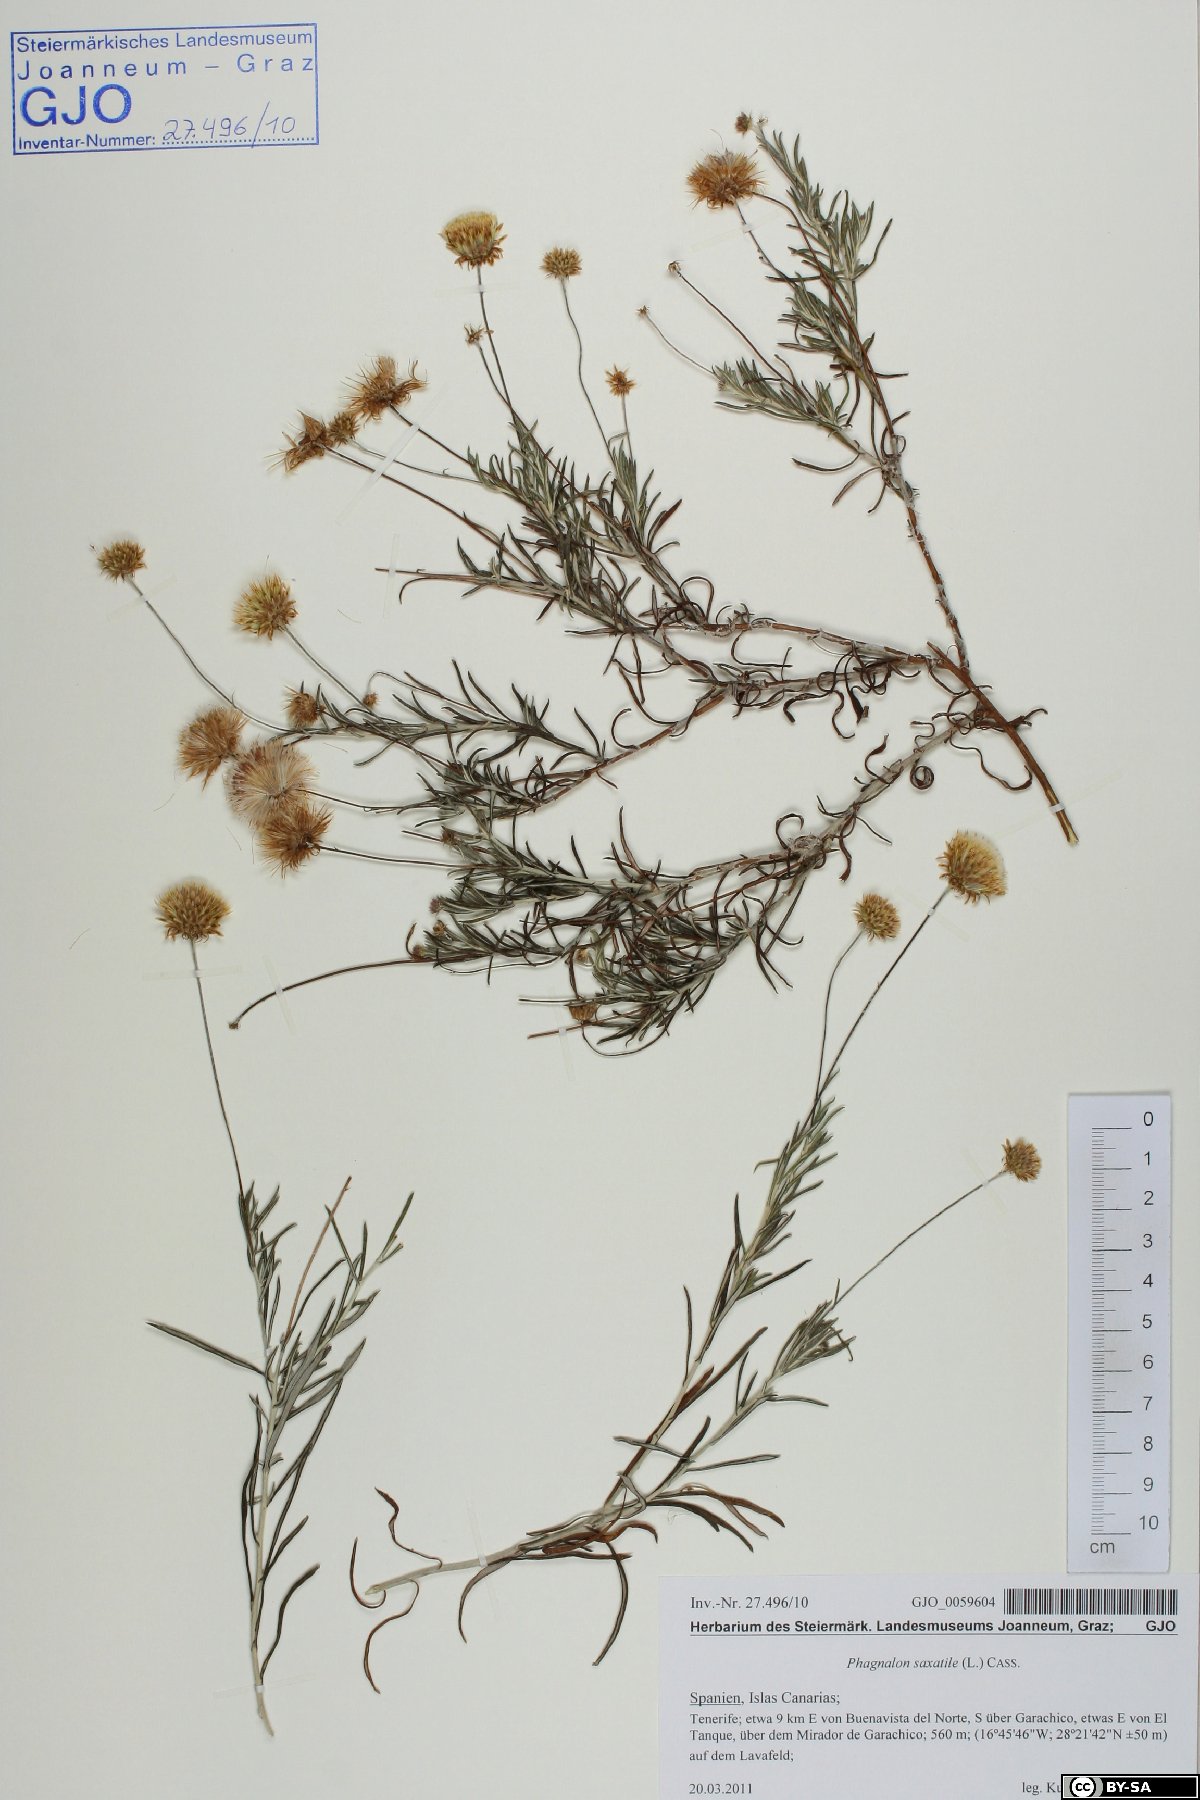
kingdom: Plantae
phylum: Tracheophyta
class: Magnoliopsida
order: Asterales
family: Asteraceae
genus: Phagnalon
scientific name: Phagnalon saxatile
